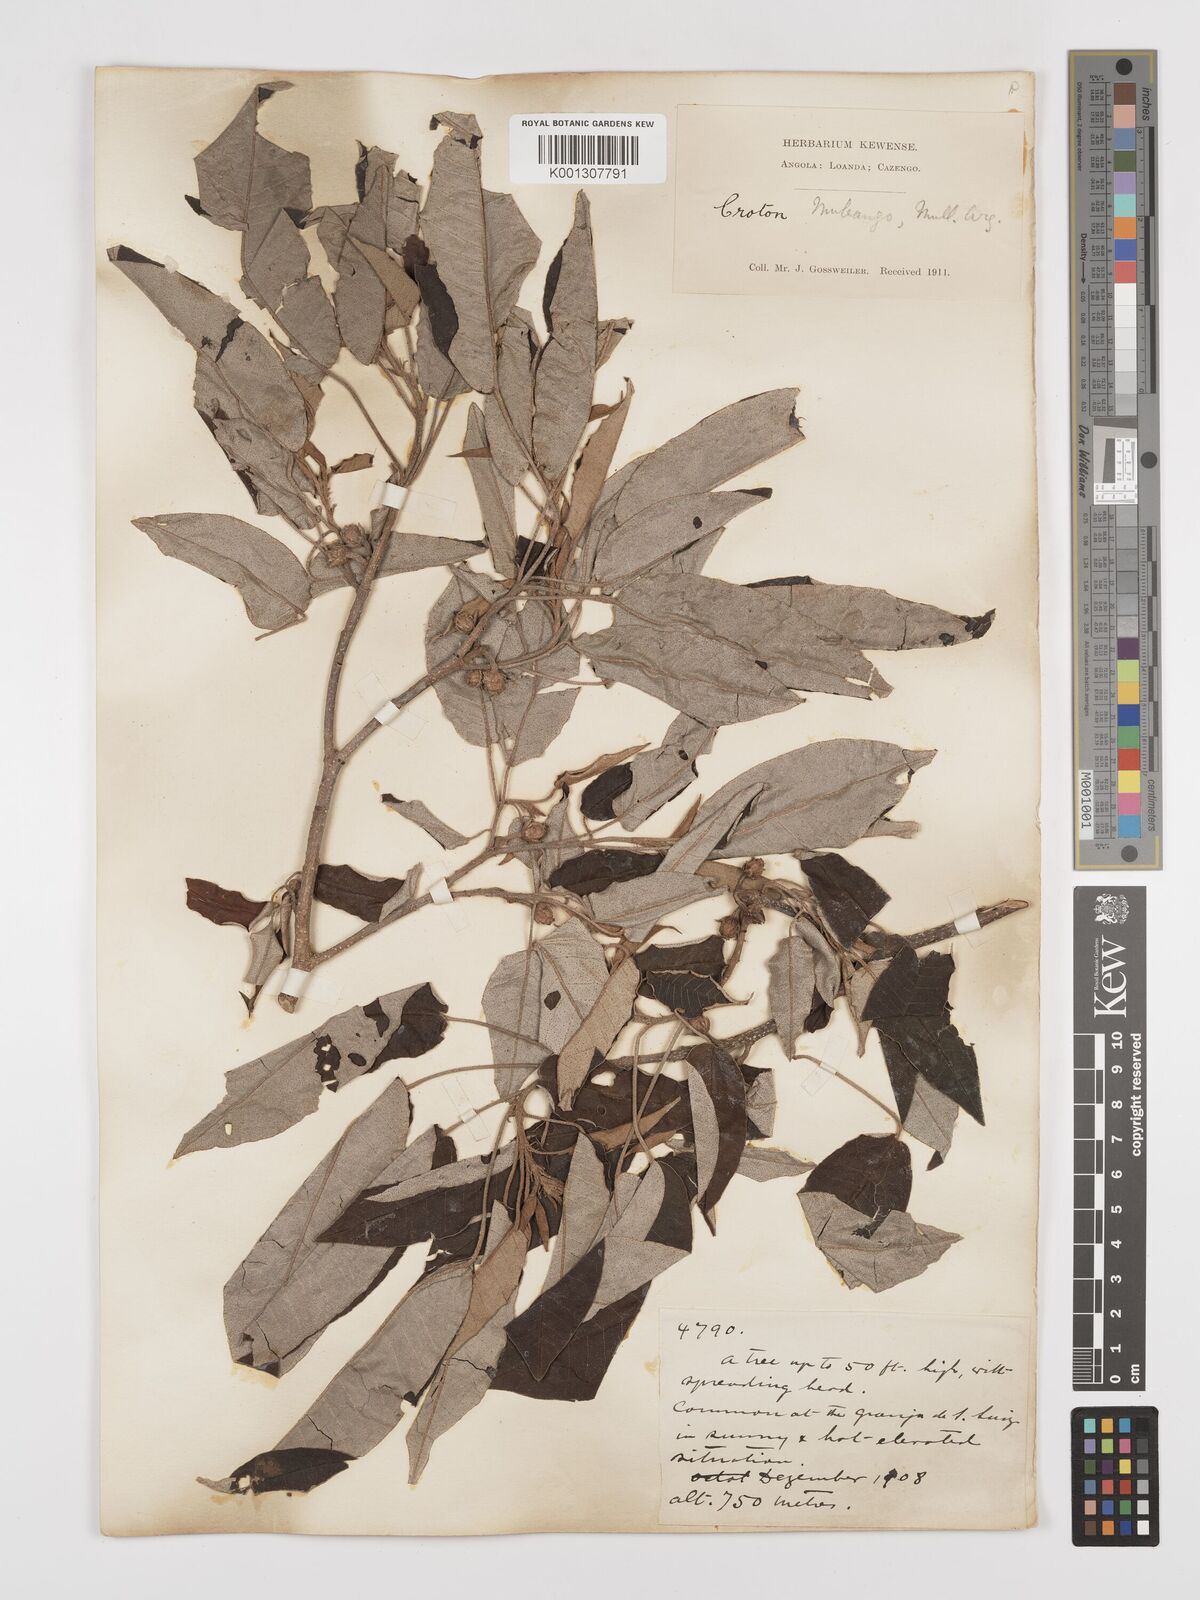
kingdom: Plantae
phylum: Tracheophyta
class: Magnoliopsida
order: Malpighiales
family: Euphorbiaceae
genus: Croton
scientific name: Croton mubango
